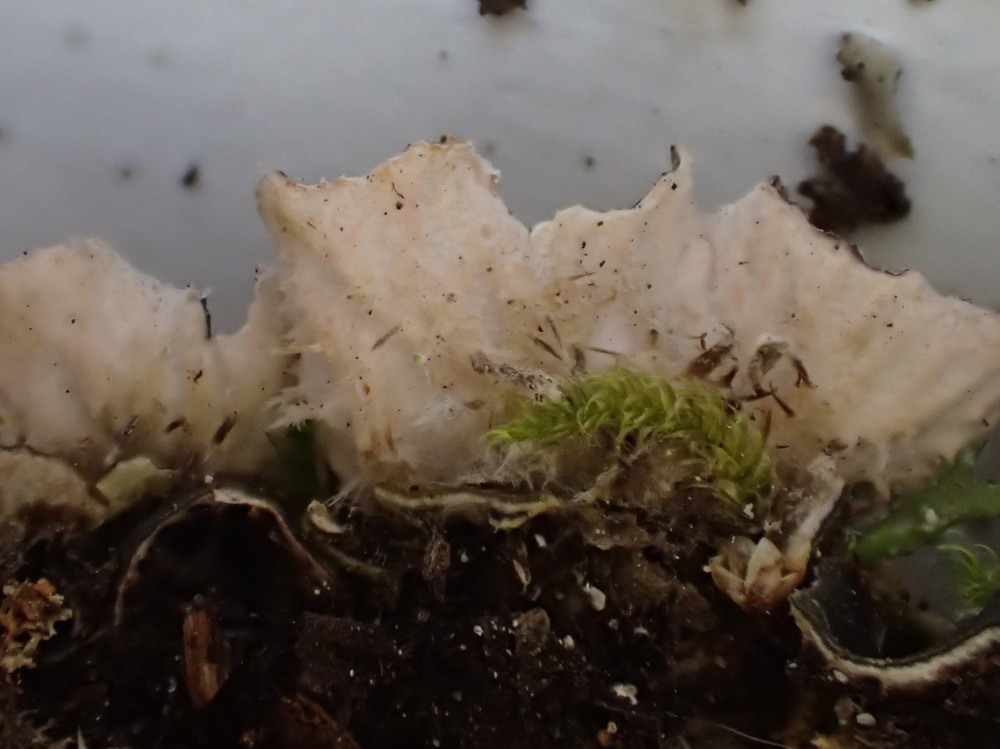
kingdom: Fungi
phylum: Ascomycota
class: Lecanoromycetes
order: Peltigerales
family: Peltigeraceae
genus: Peltigera
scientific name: Peltigera didactyla
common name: liden skjoldlav
